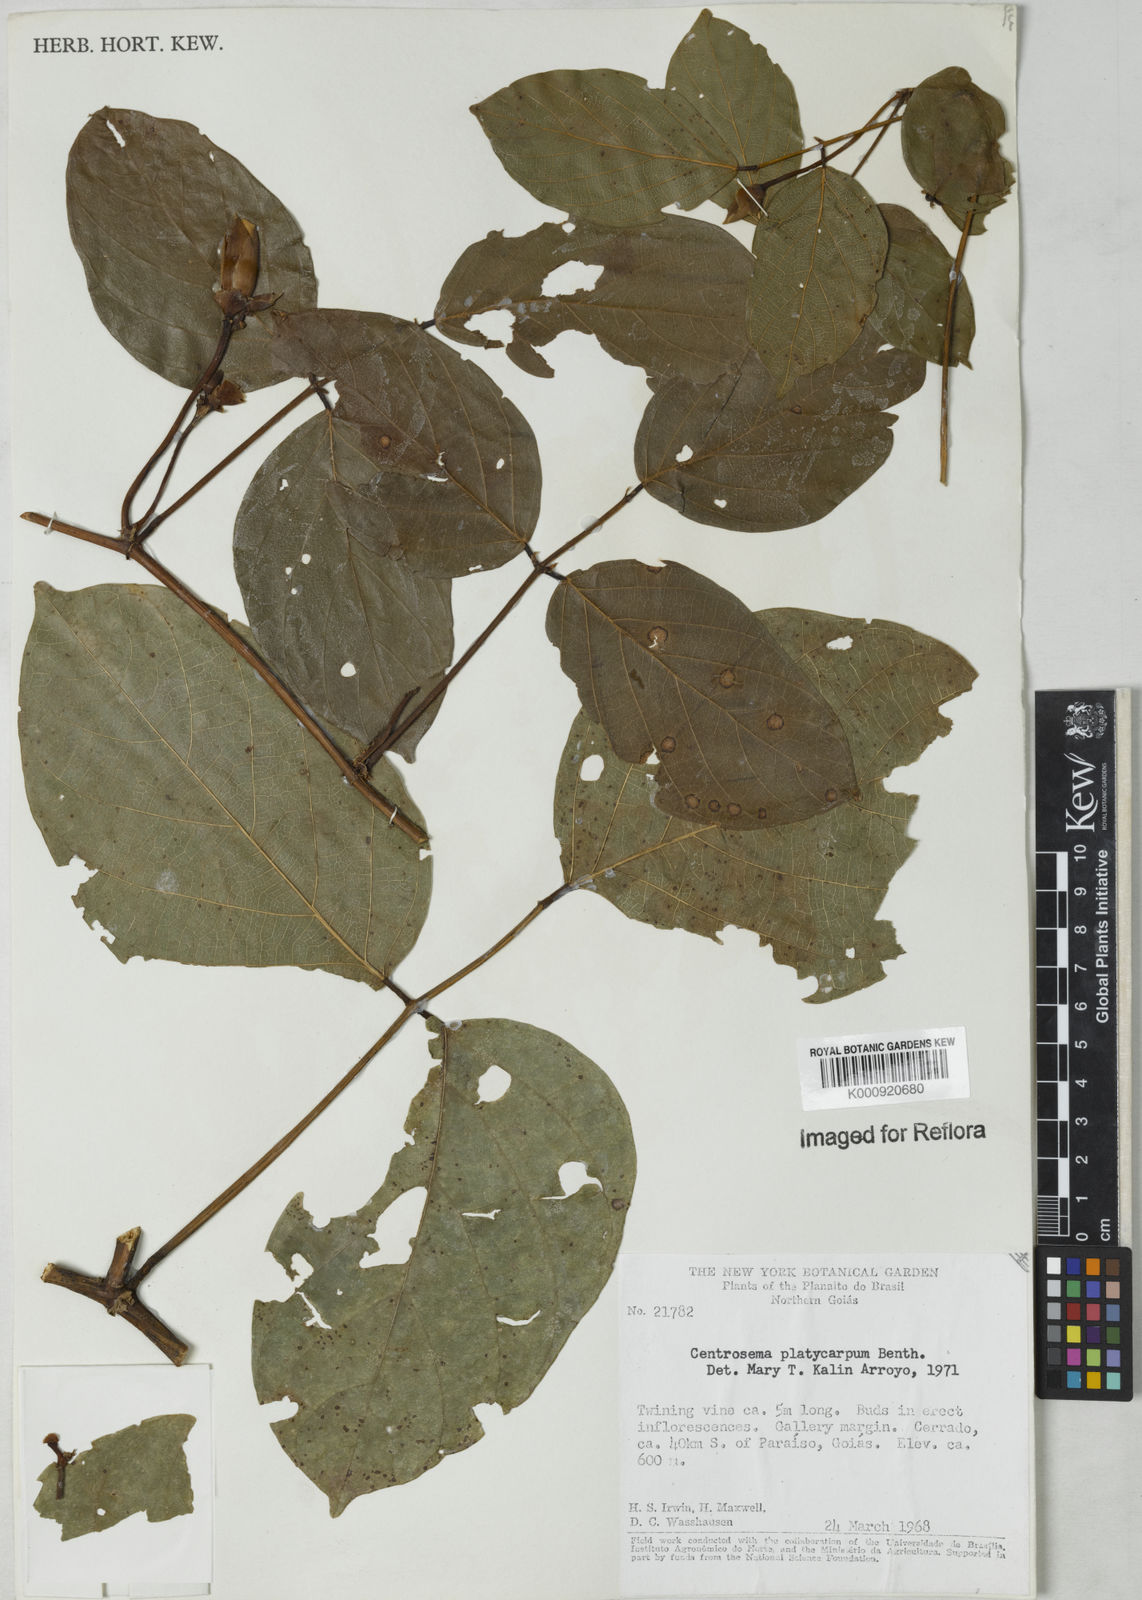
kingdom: Plantae
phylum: Tracheophyta
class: Magnoliopsida
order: Fabales
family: Fabaceae
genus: Centrosema
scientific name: Centrosema platycarpum
